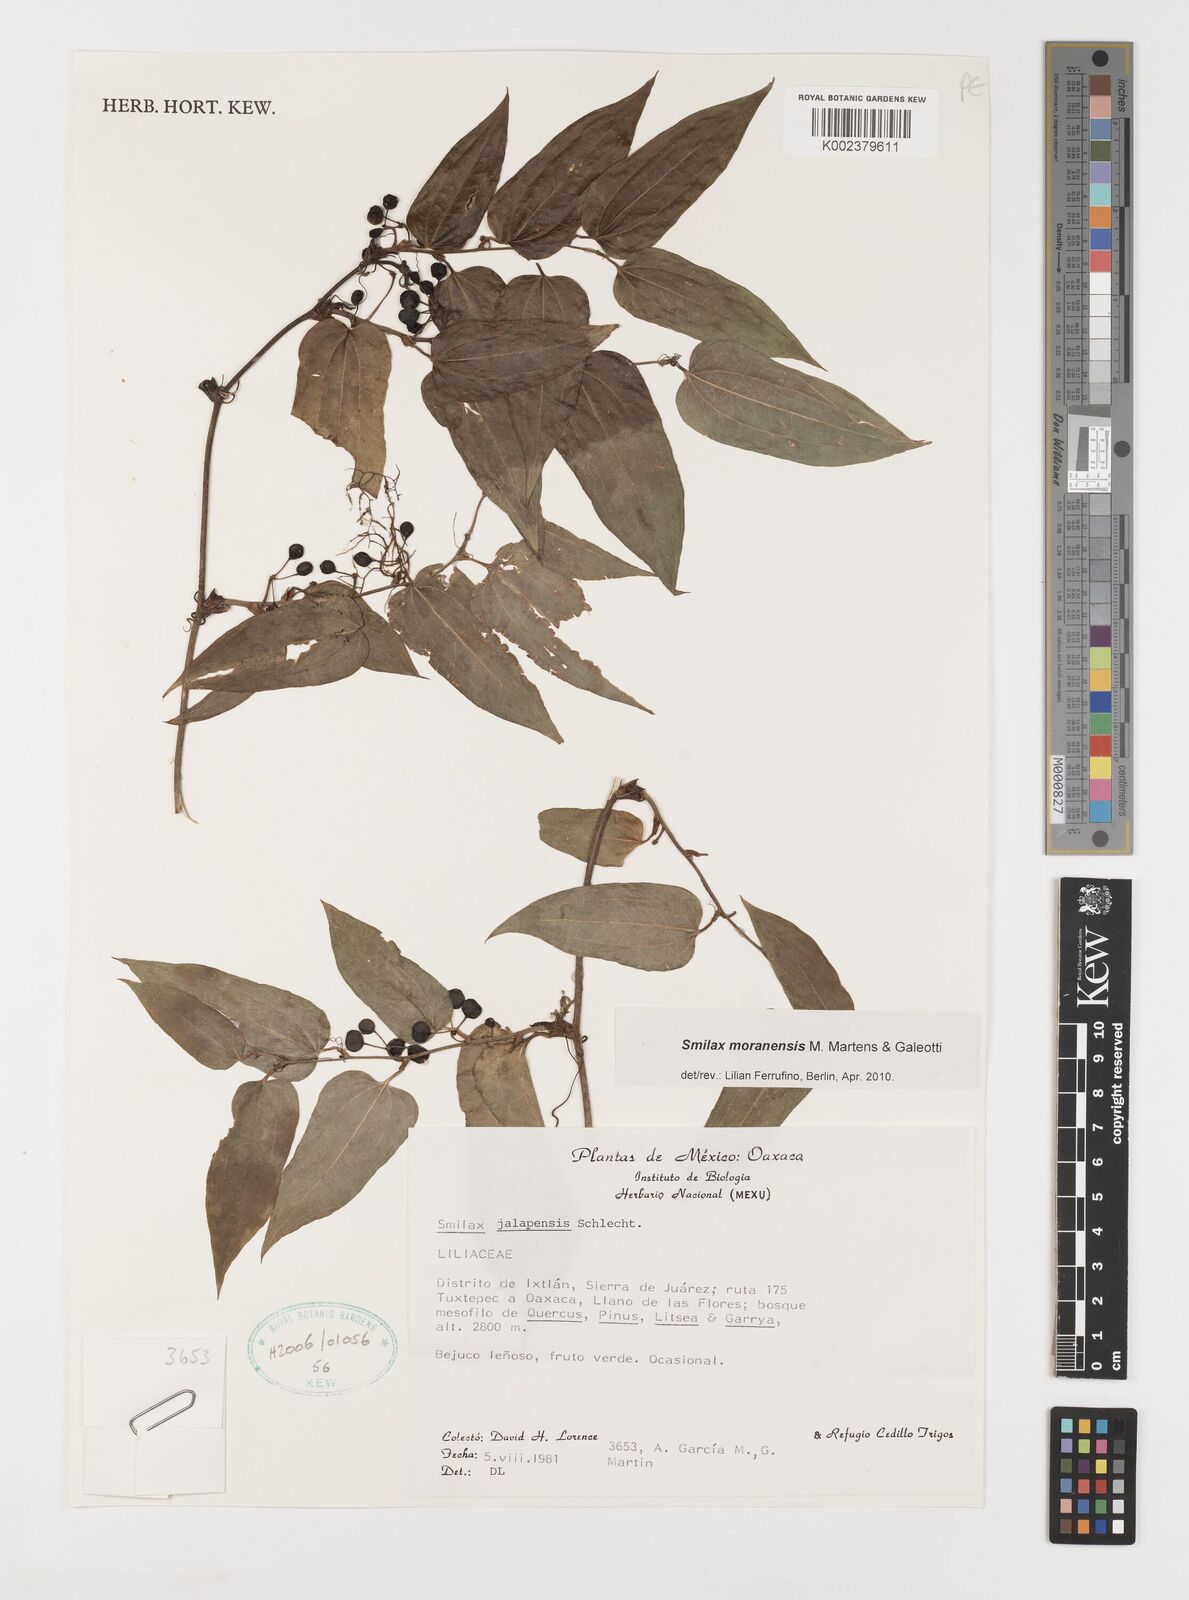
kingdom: Plantae
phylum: Tracheophyta
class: Liliopsida
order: Liliales
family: Smilacaceae
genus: Smilax
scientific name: Smilax moranensis
